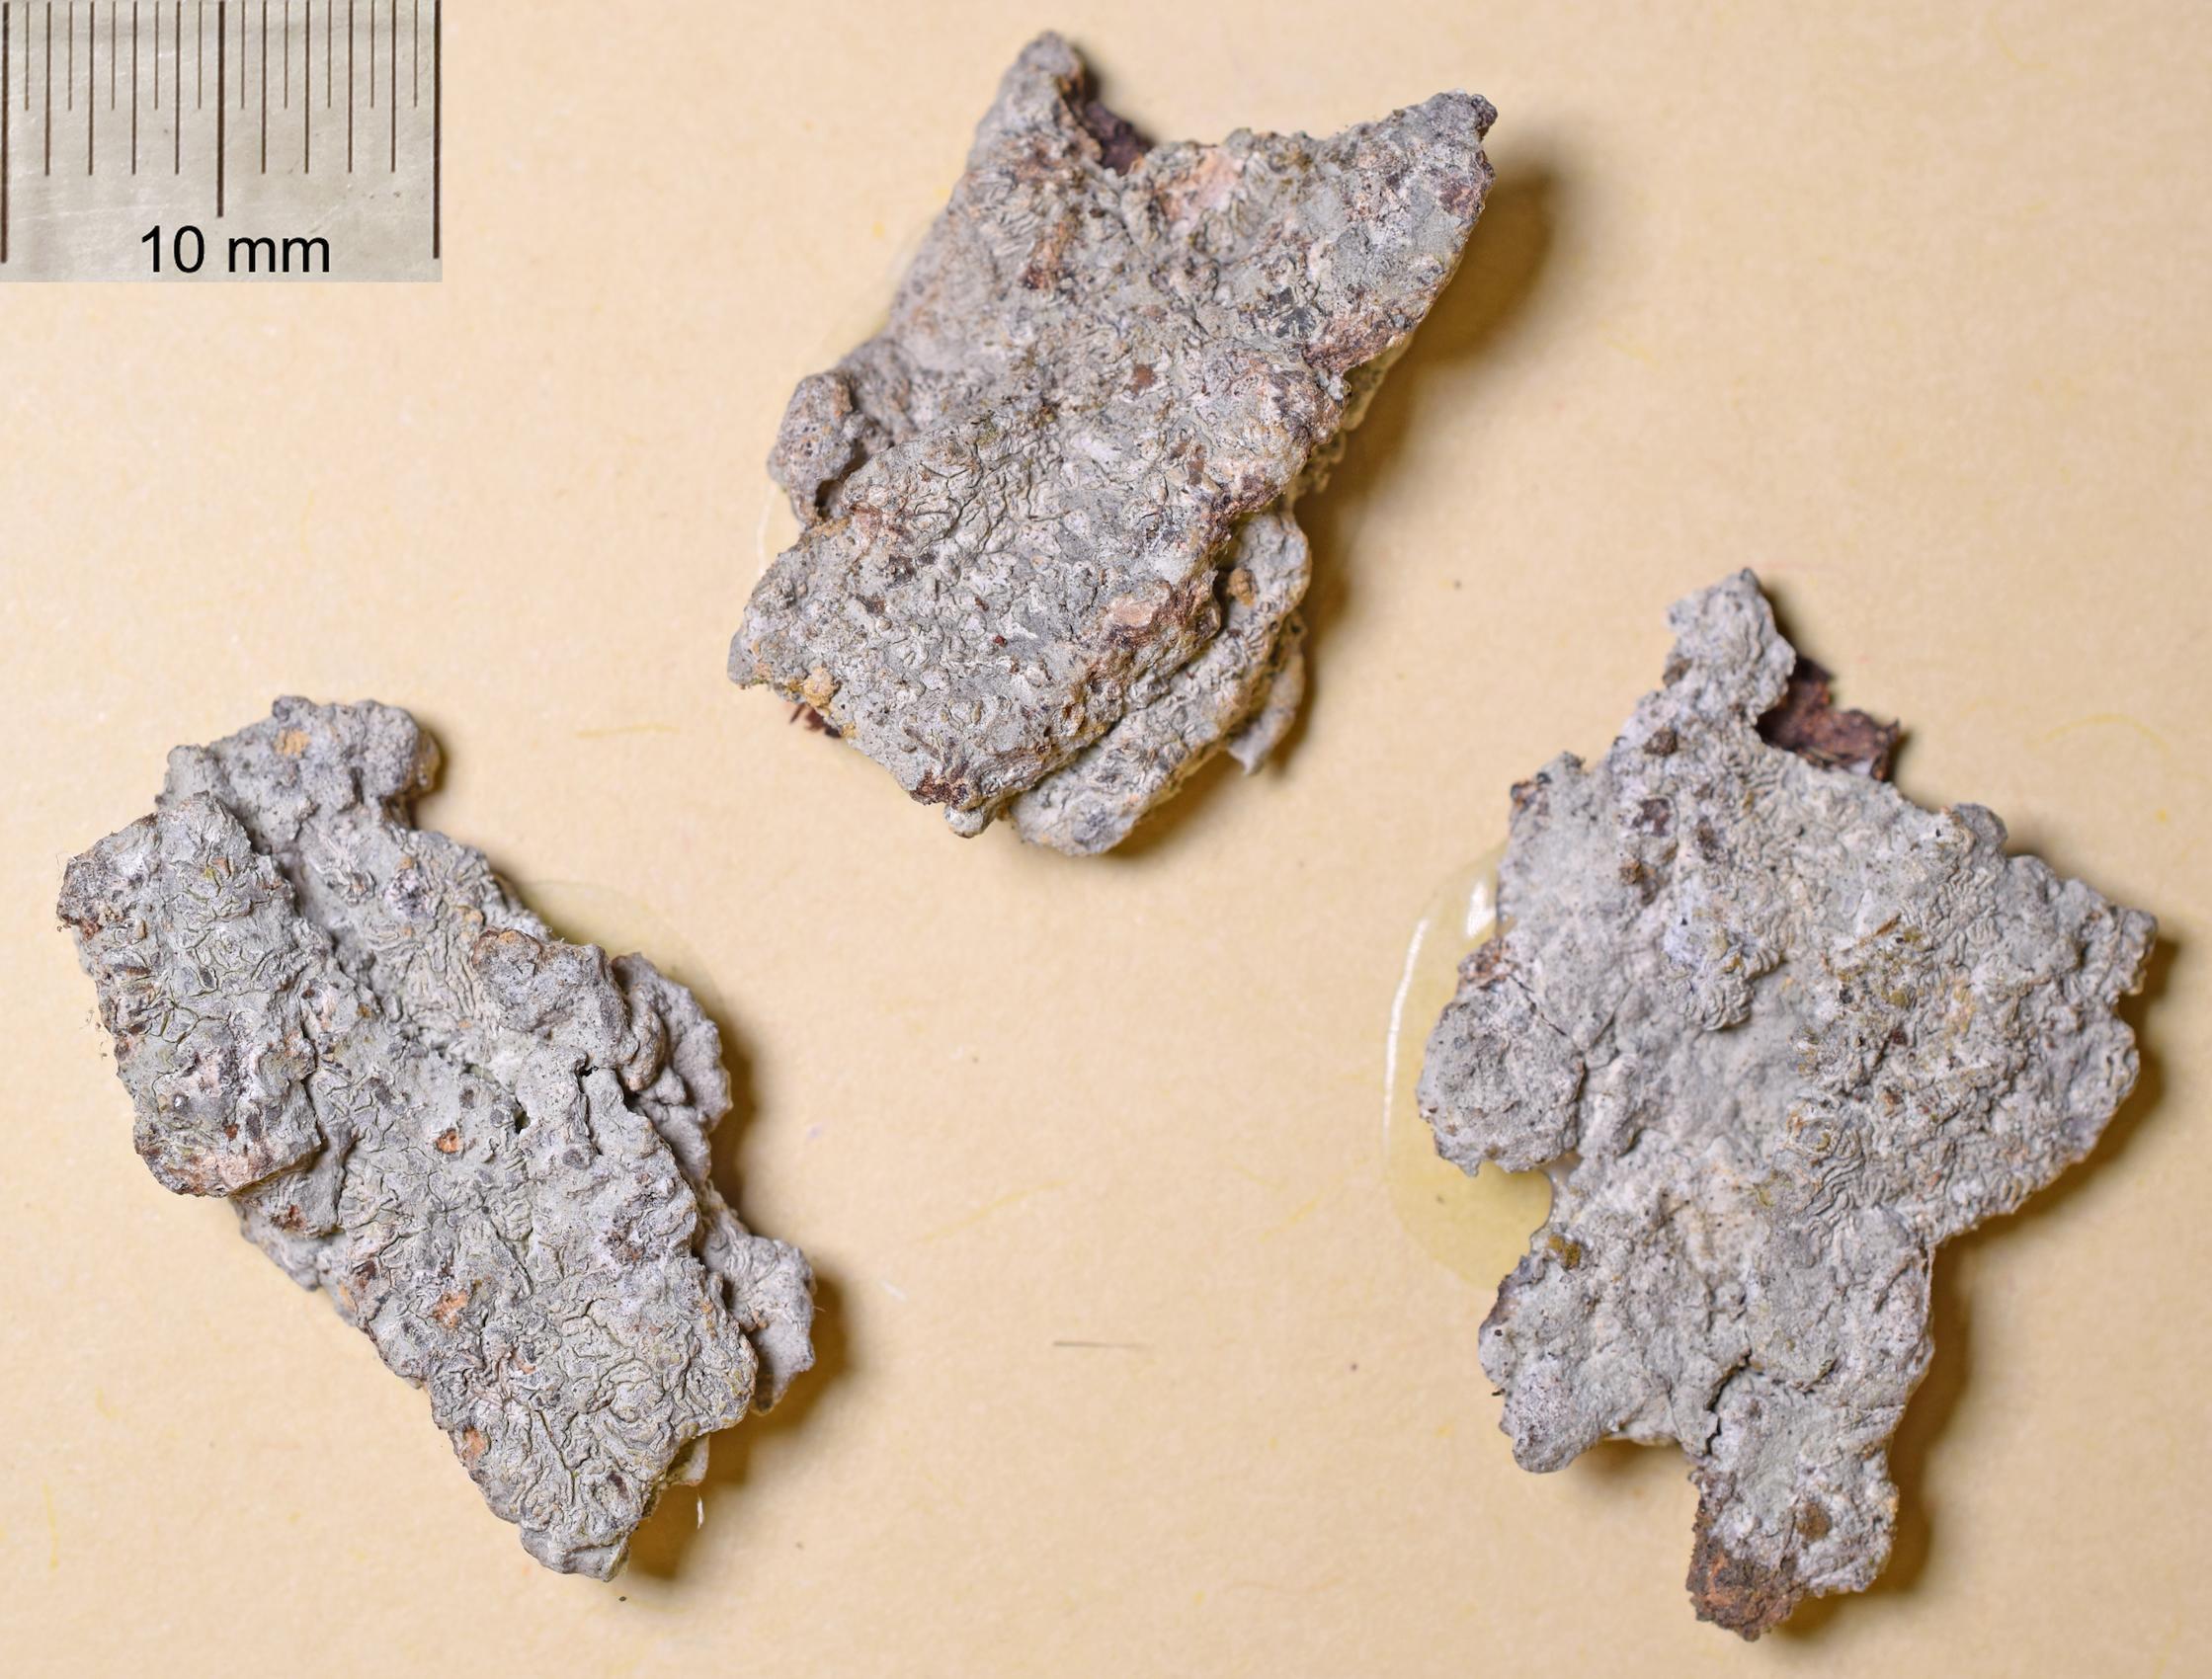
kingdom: Fungi
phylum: Ascomycota
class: Lecanoromycetes
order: Ostropales
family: Graphidaceae
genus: Diorygma
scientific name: Diorygma
